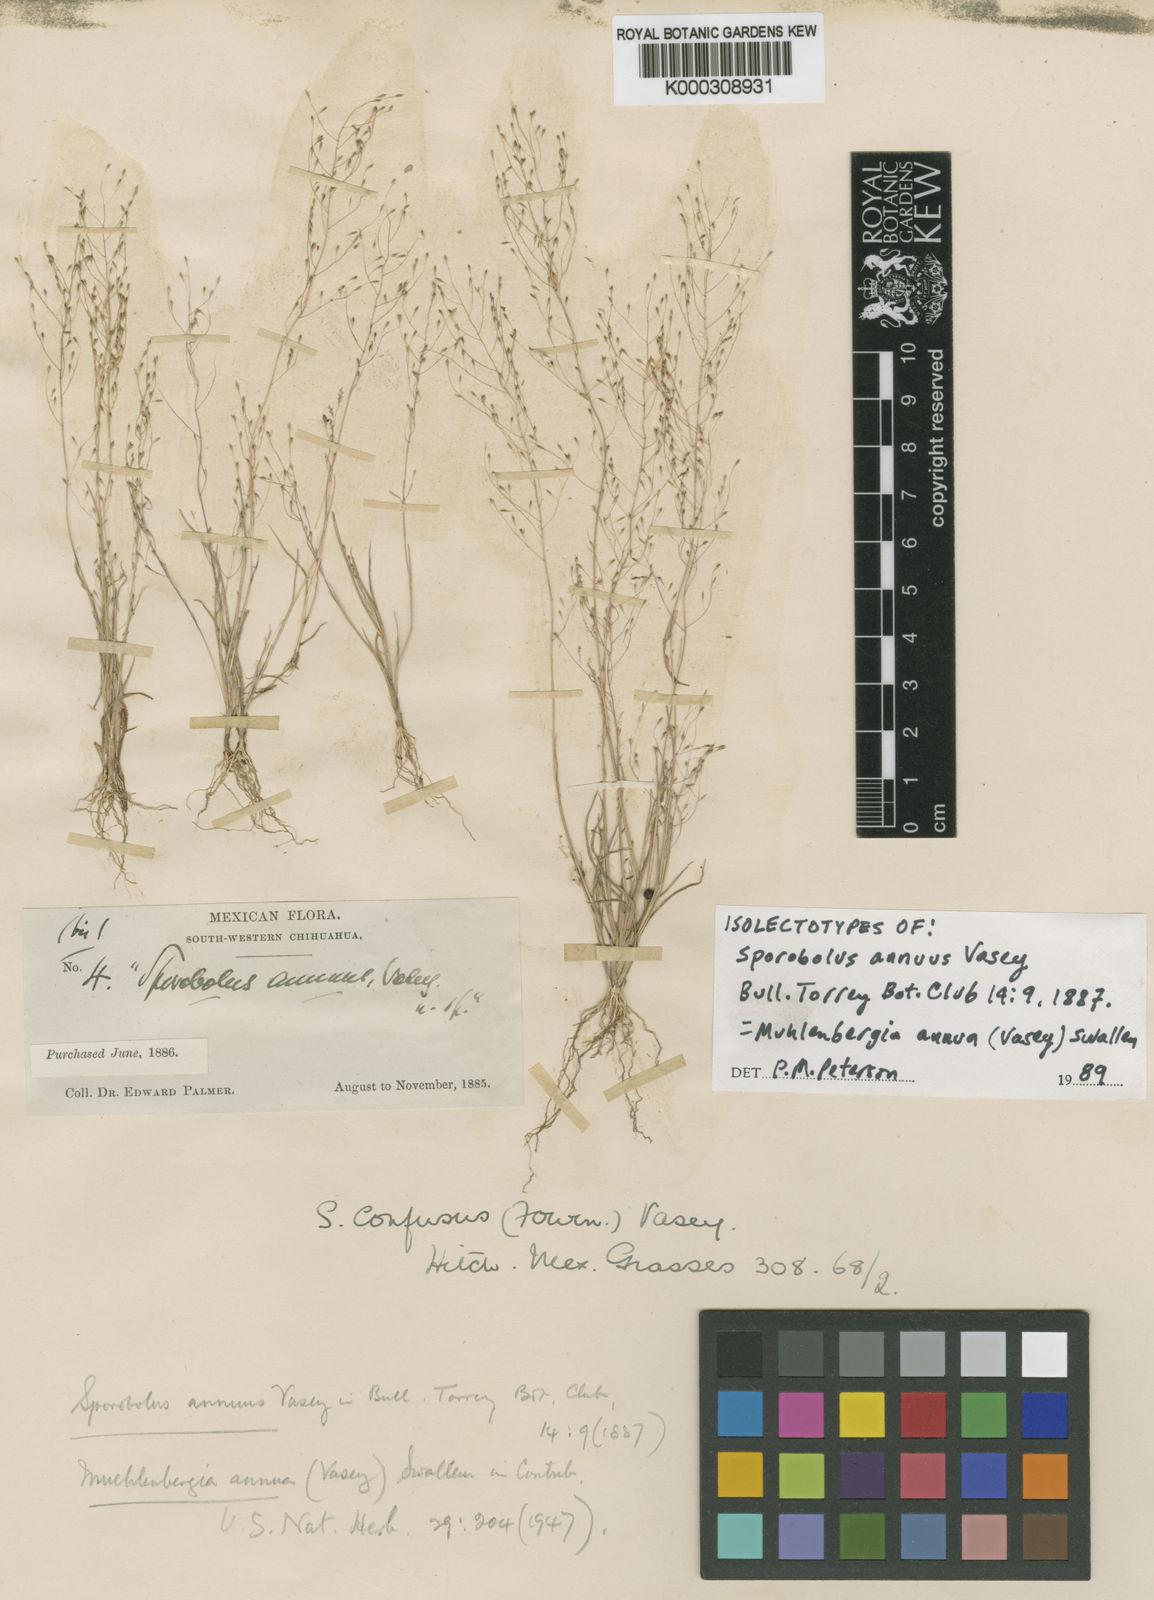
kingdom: Plantae
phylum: Tracheophyta
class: Liliopsida
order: Poales
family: Poaceae
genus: Muhlenbergia
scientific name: Muhlenbergia annua
